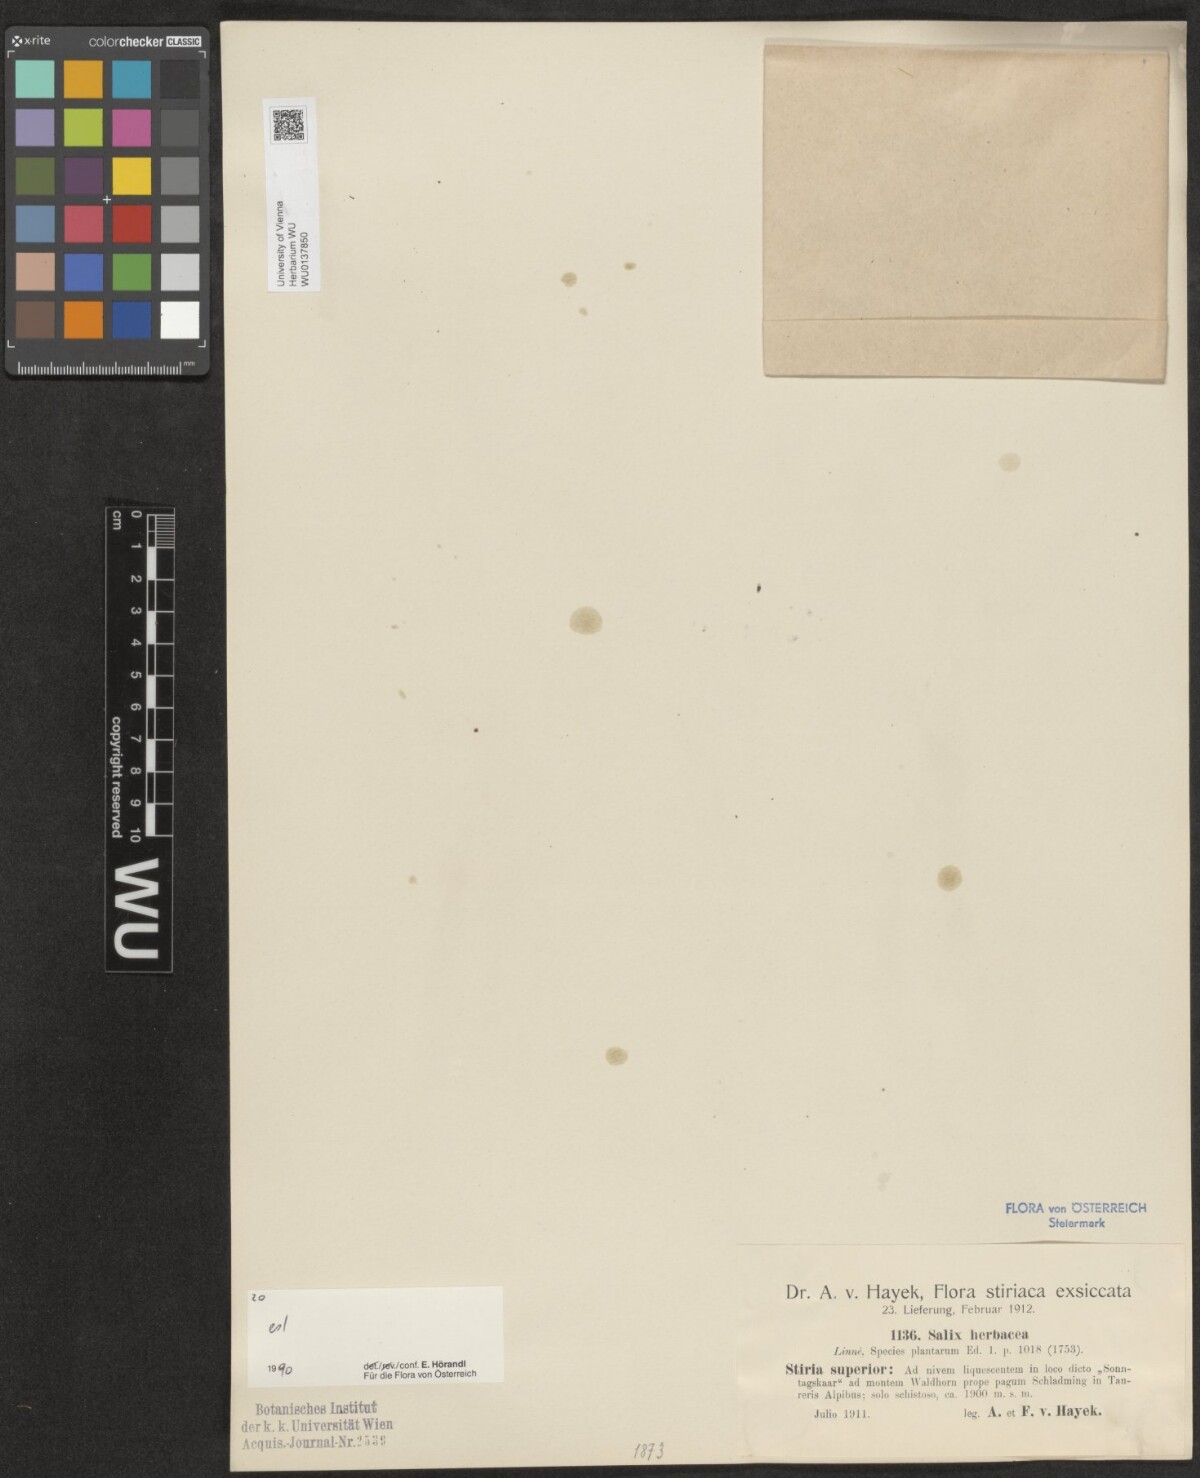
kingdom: Plantae
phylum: Tracheophyta
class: Magnoliopsida
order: Malpighiales
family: Salicaceae
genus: Salix
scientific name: Salix herbacea
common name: Dwarf willow
